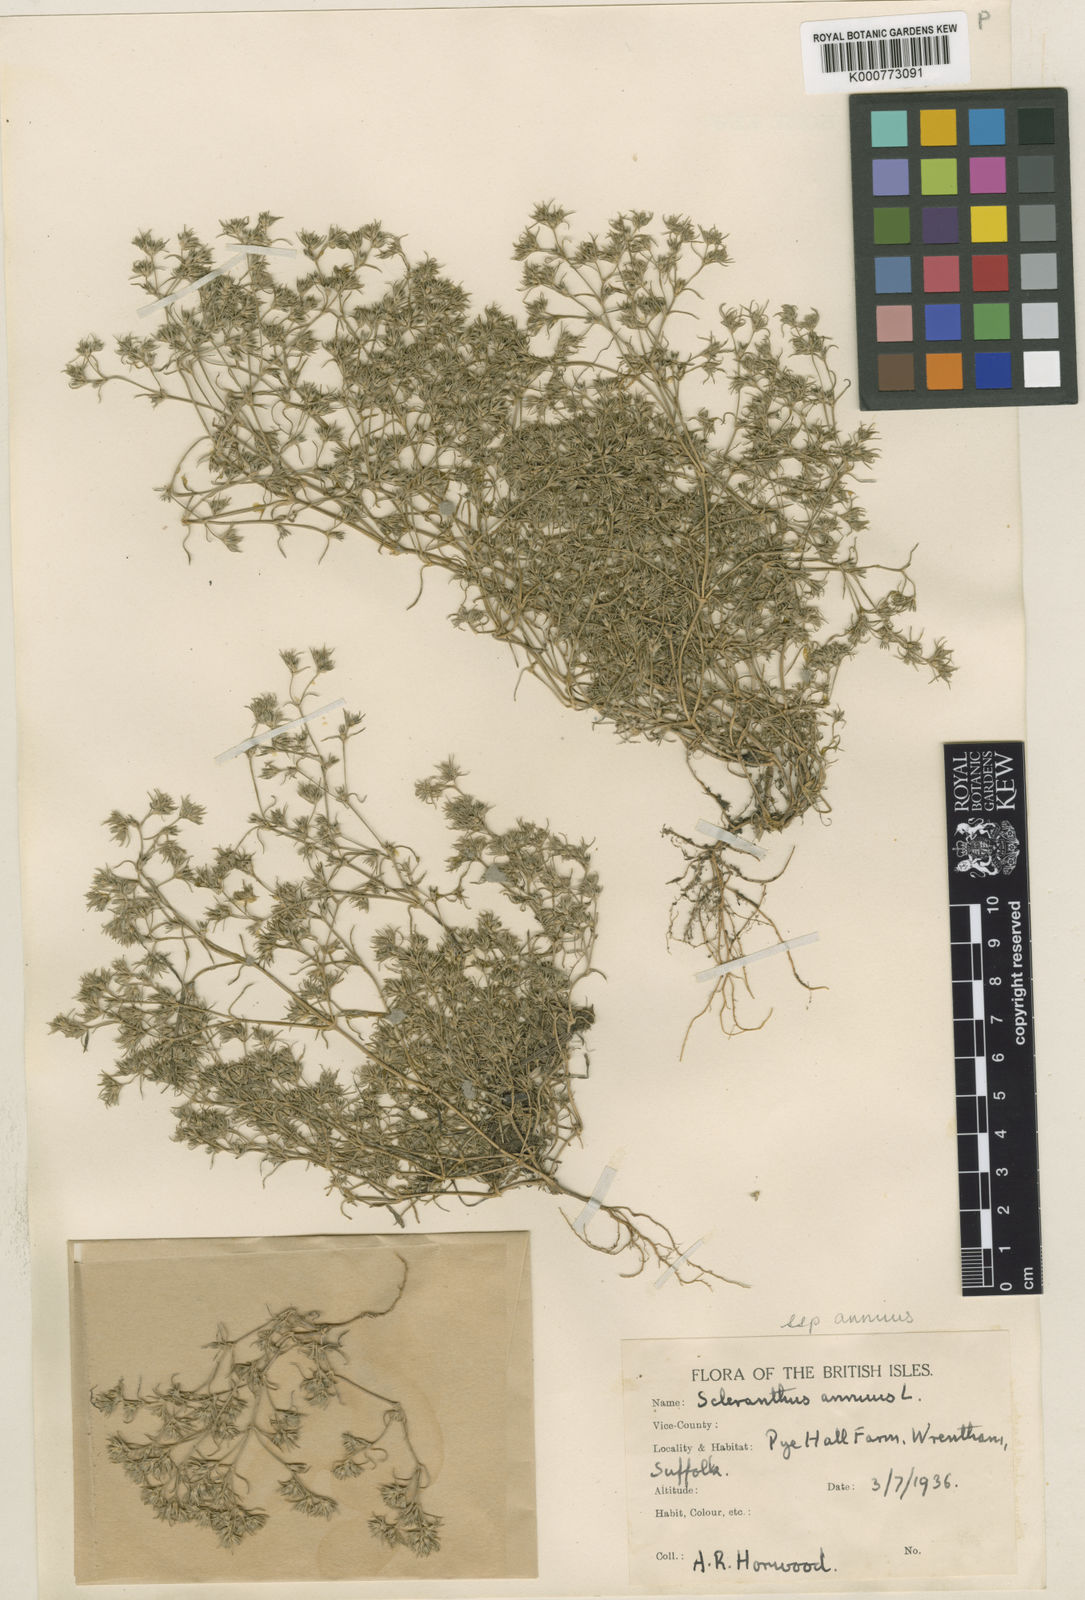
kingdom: Plantae
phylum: Tracheophyta
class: Magnoliopsida
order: Caryophyllales
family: Caryophyllaceae
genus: Scleranthus
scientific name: Scleranthus annuus
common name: Annual knawel
